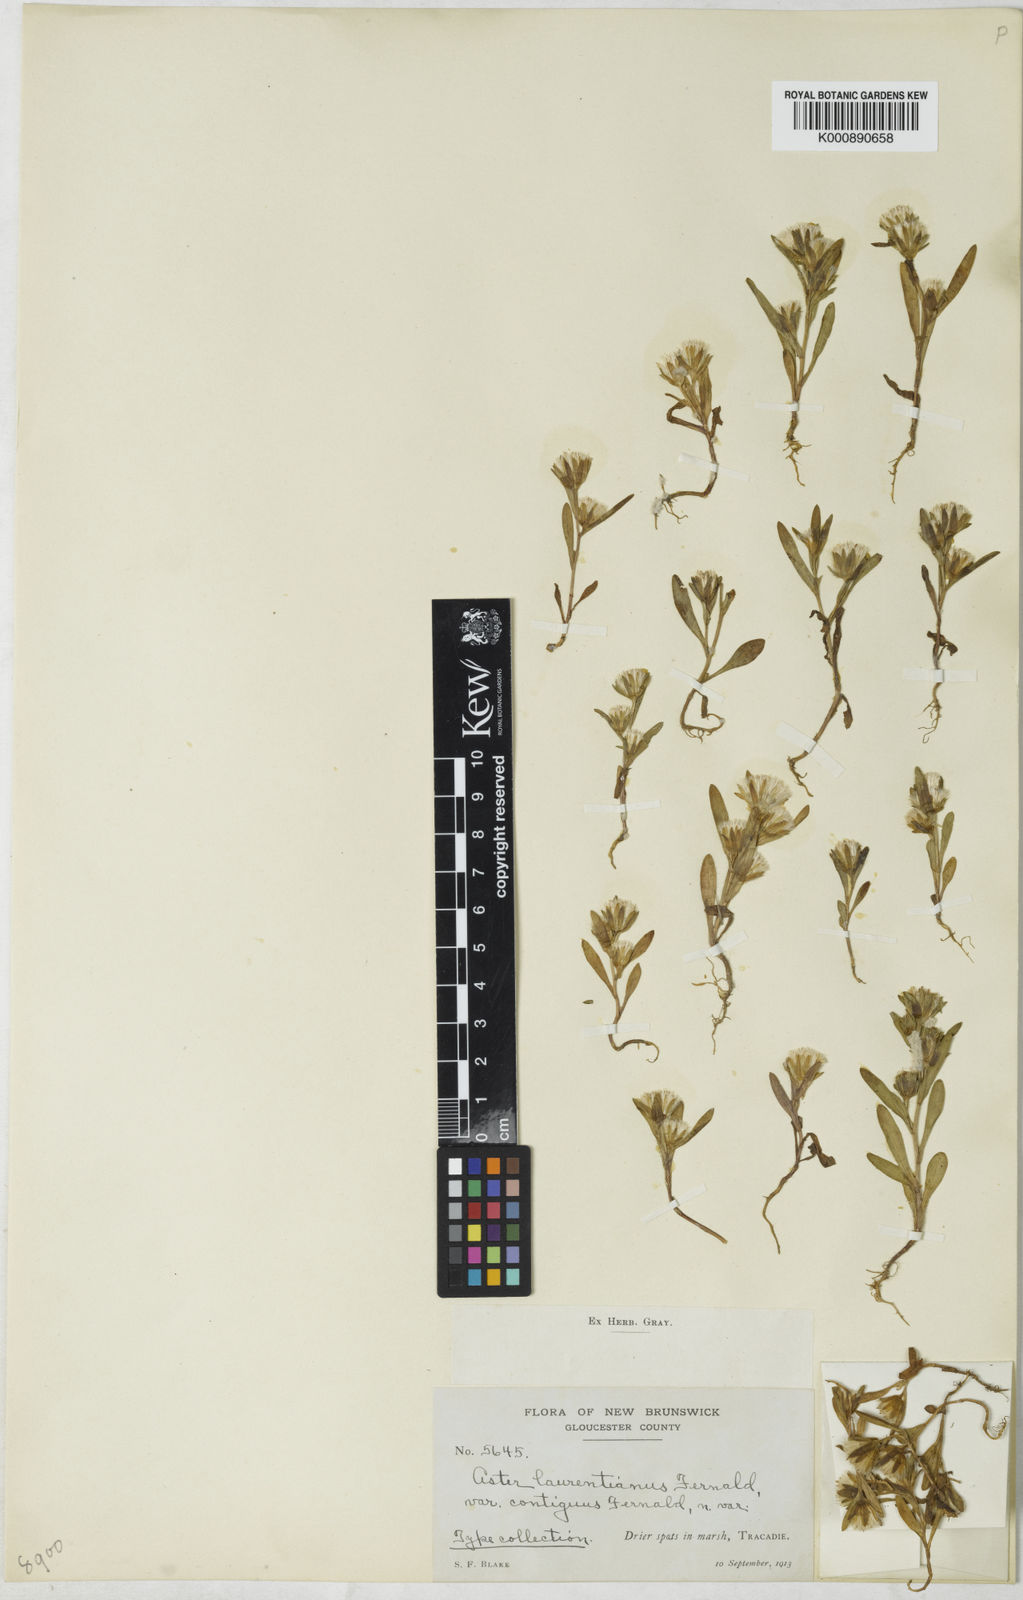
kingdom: Plantae
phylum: Tracheophyta
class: Magnoliopsida
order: Asterales
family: Asteraceae
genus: Symphyotrichum
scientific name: Symphyotrichum laurentianum
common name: St. lawrence annual aster
